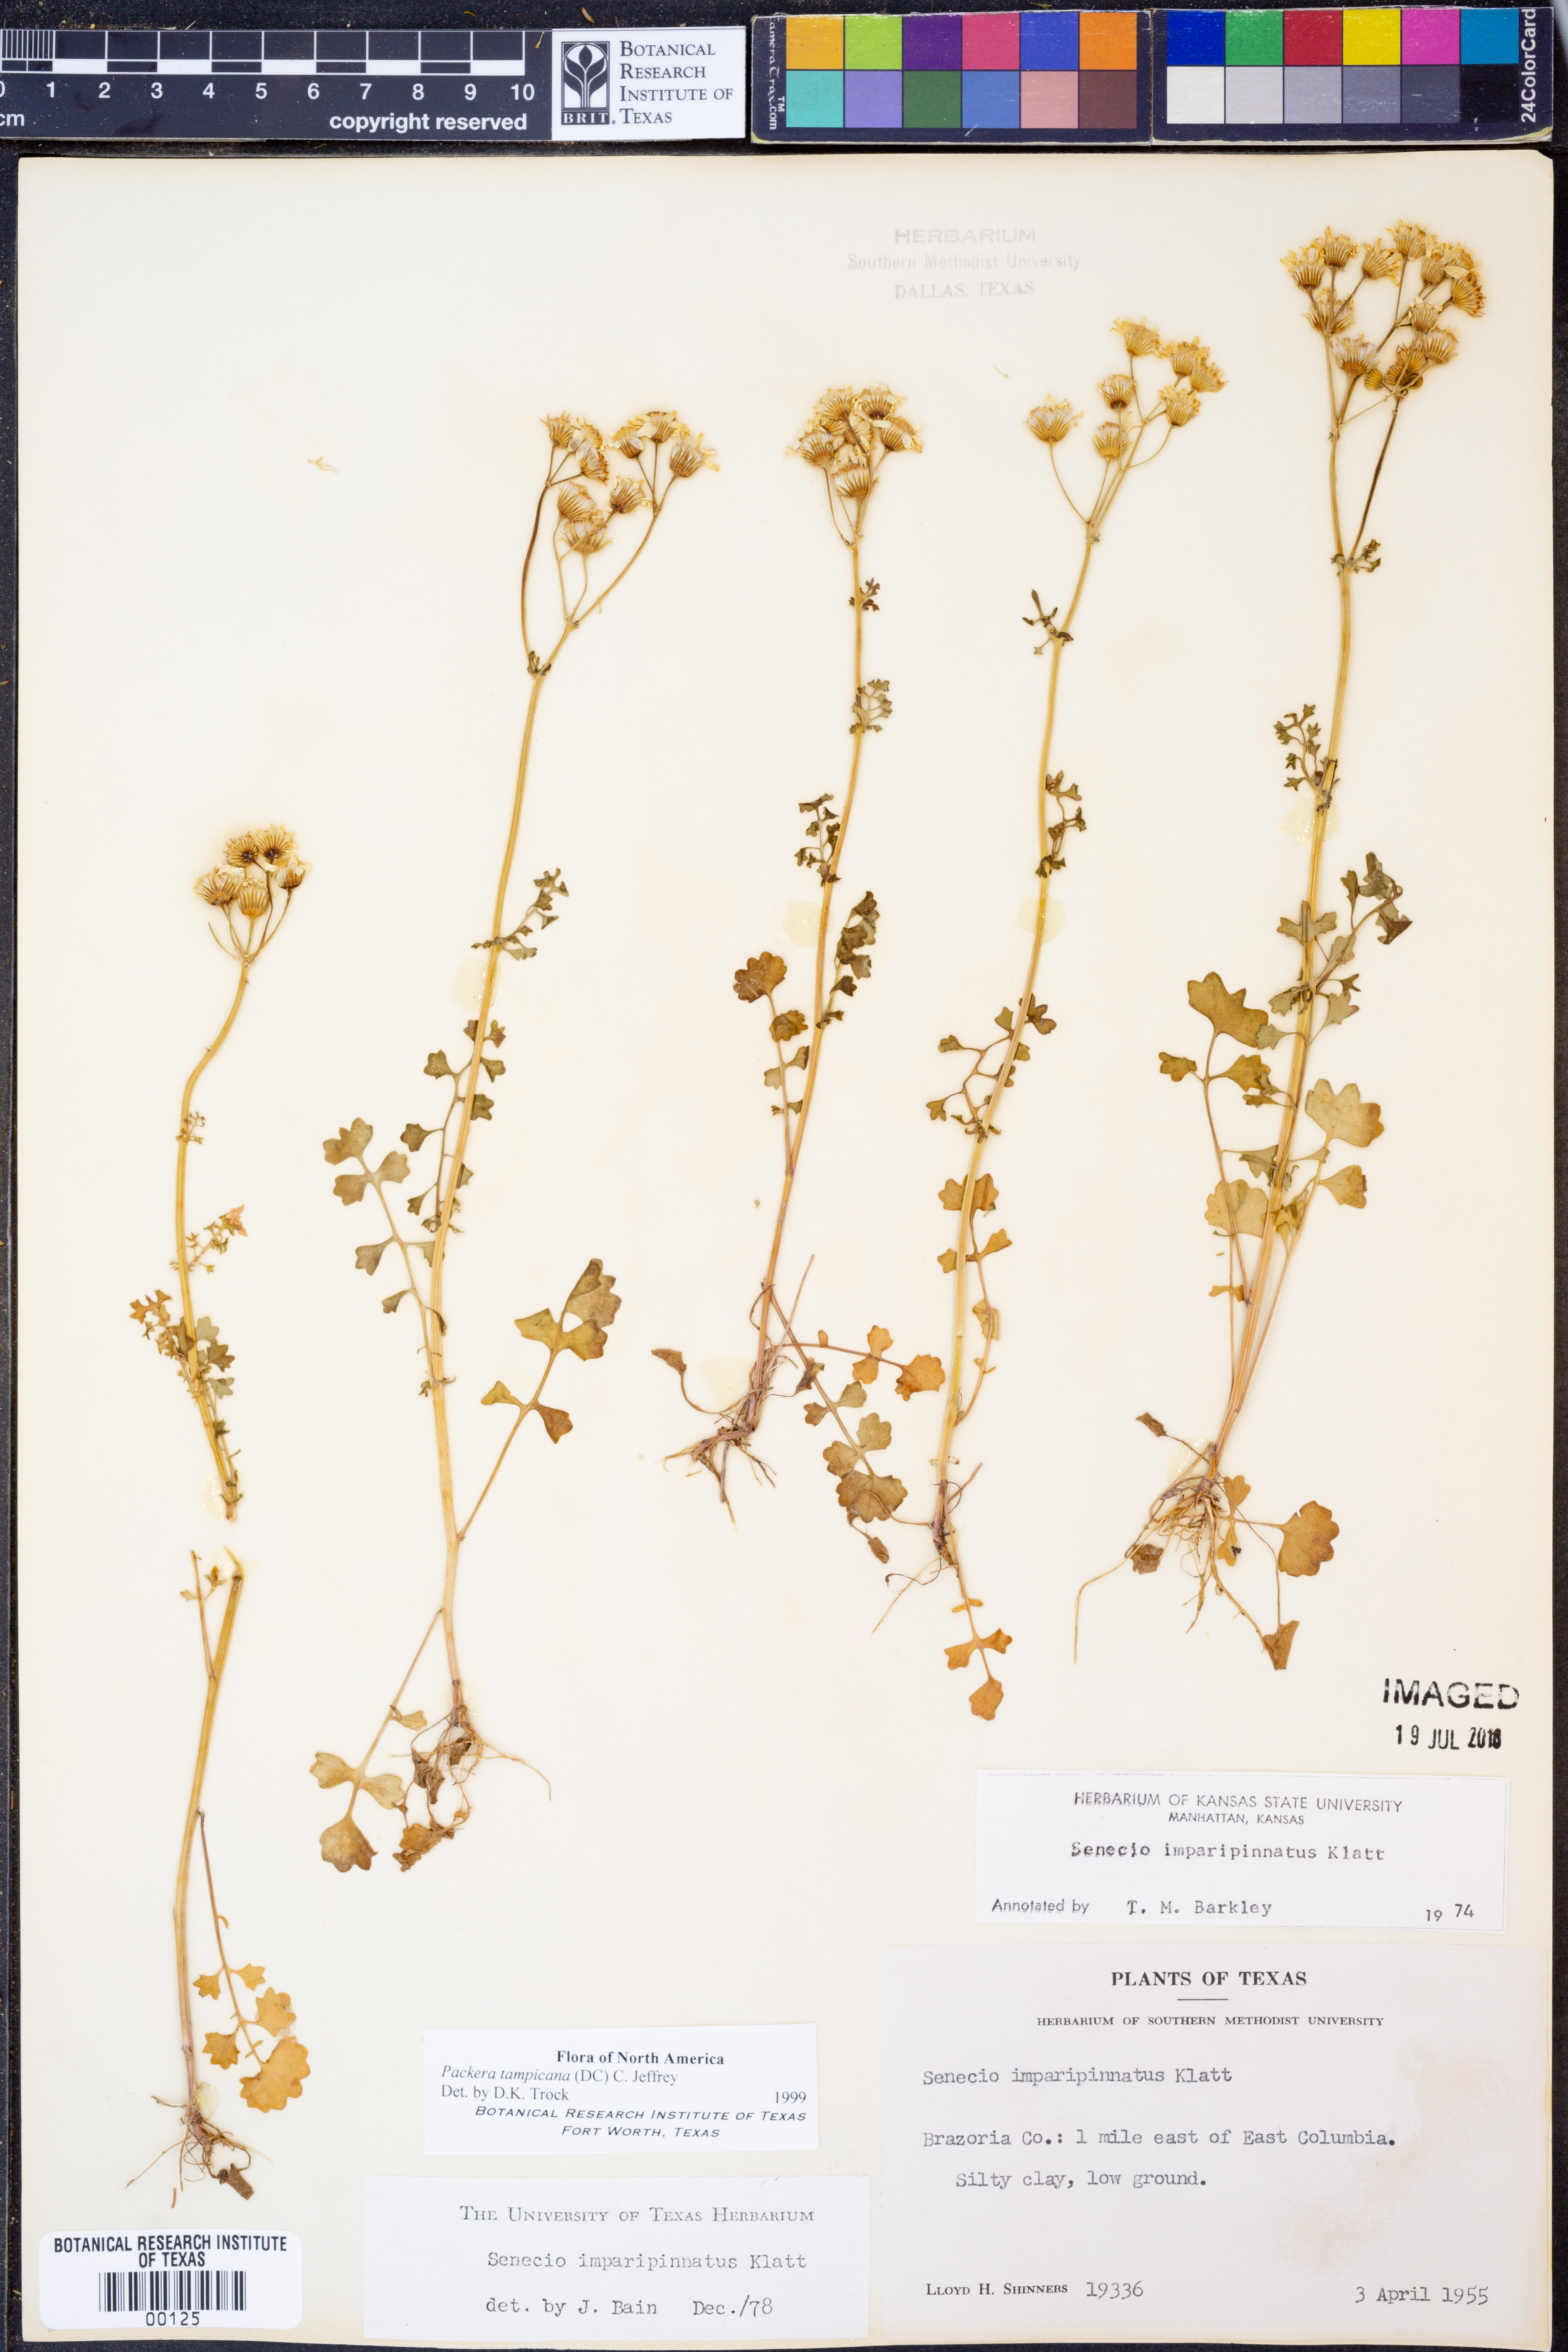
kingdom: Plantae
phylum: Tracheophyta
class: Magnoliopsida
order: Asterales
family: Asteraceae
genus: Packera
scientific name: Packera tampicana
